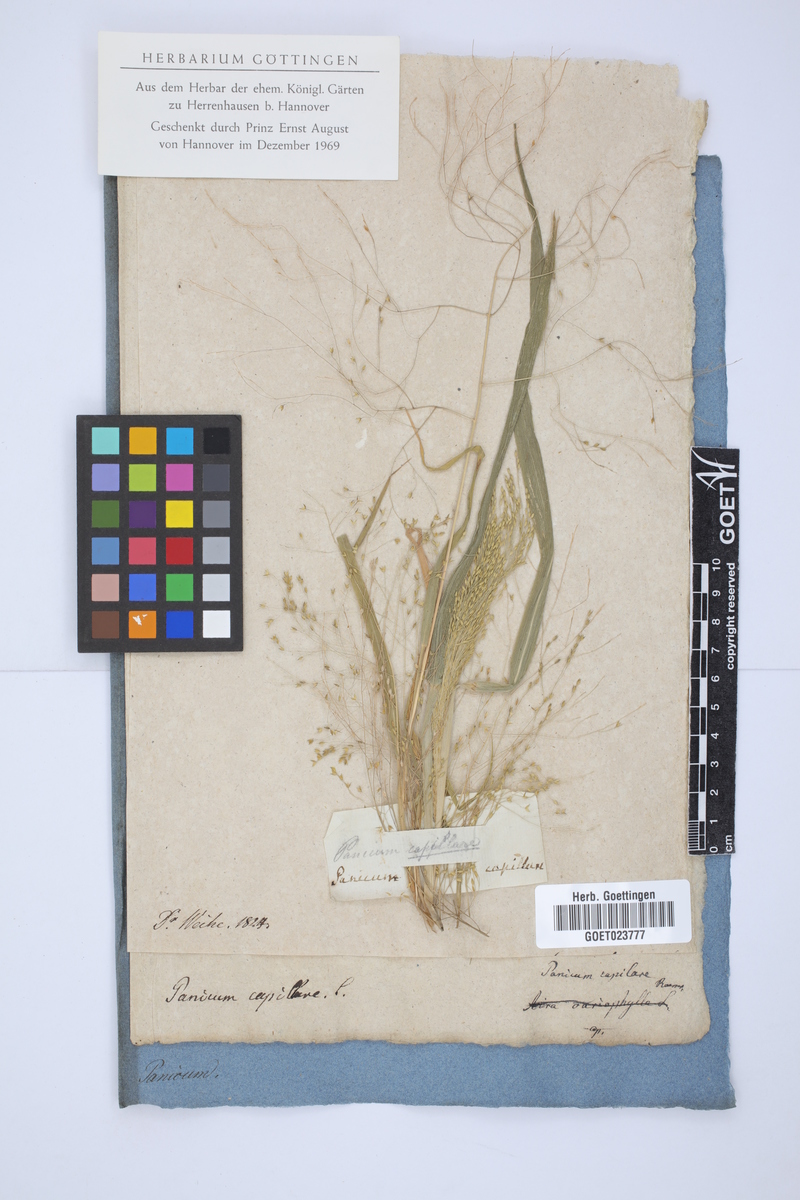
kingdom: Plantae
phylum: Tracheophyta
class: Liliopsida
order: Poales
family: Poaceae
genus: Panicum
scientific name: Panicum capillare
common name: Witch-grass
